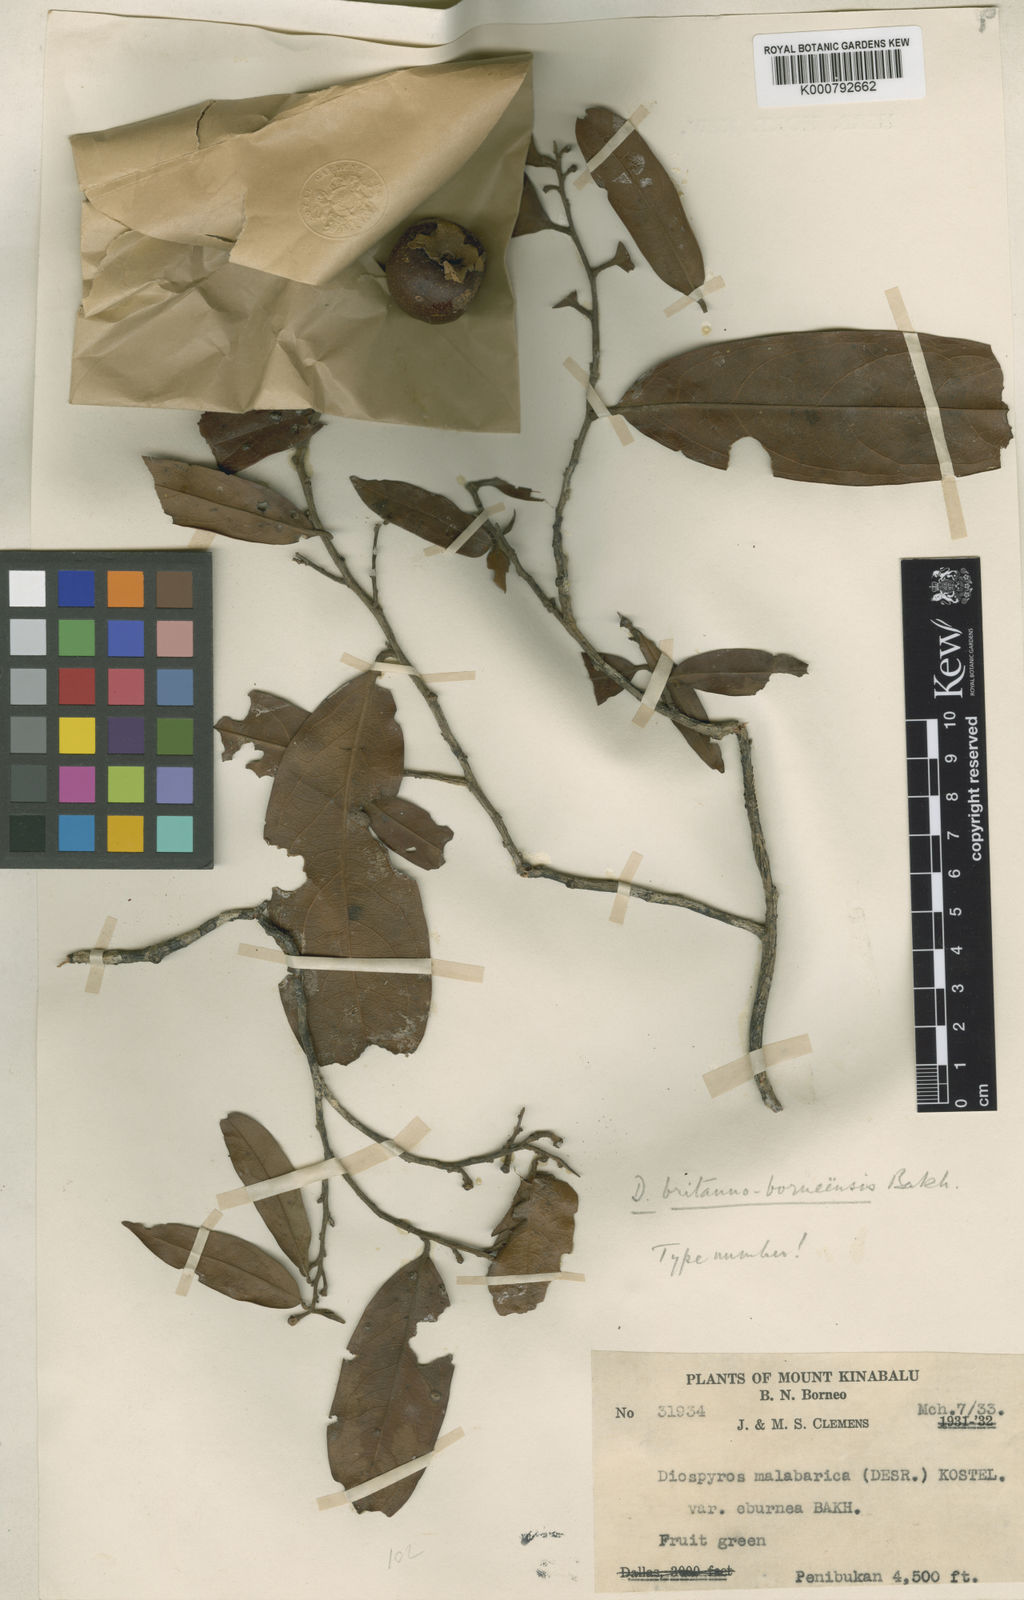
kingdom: Plantae
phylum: Tracheophyta
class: Magnoliopsida
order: Ericales
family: Ebenaceae
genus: Diospyros
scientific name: Diospyros britannoborneensis
